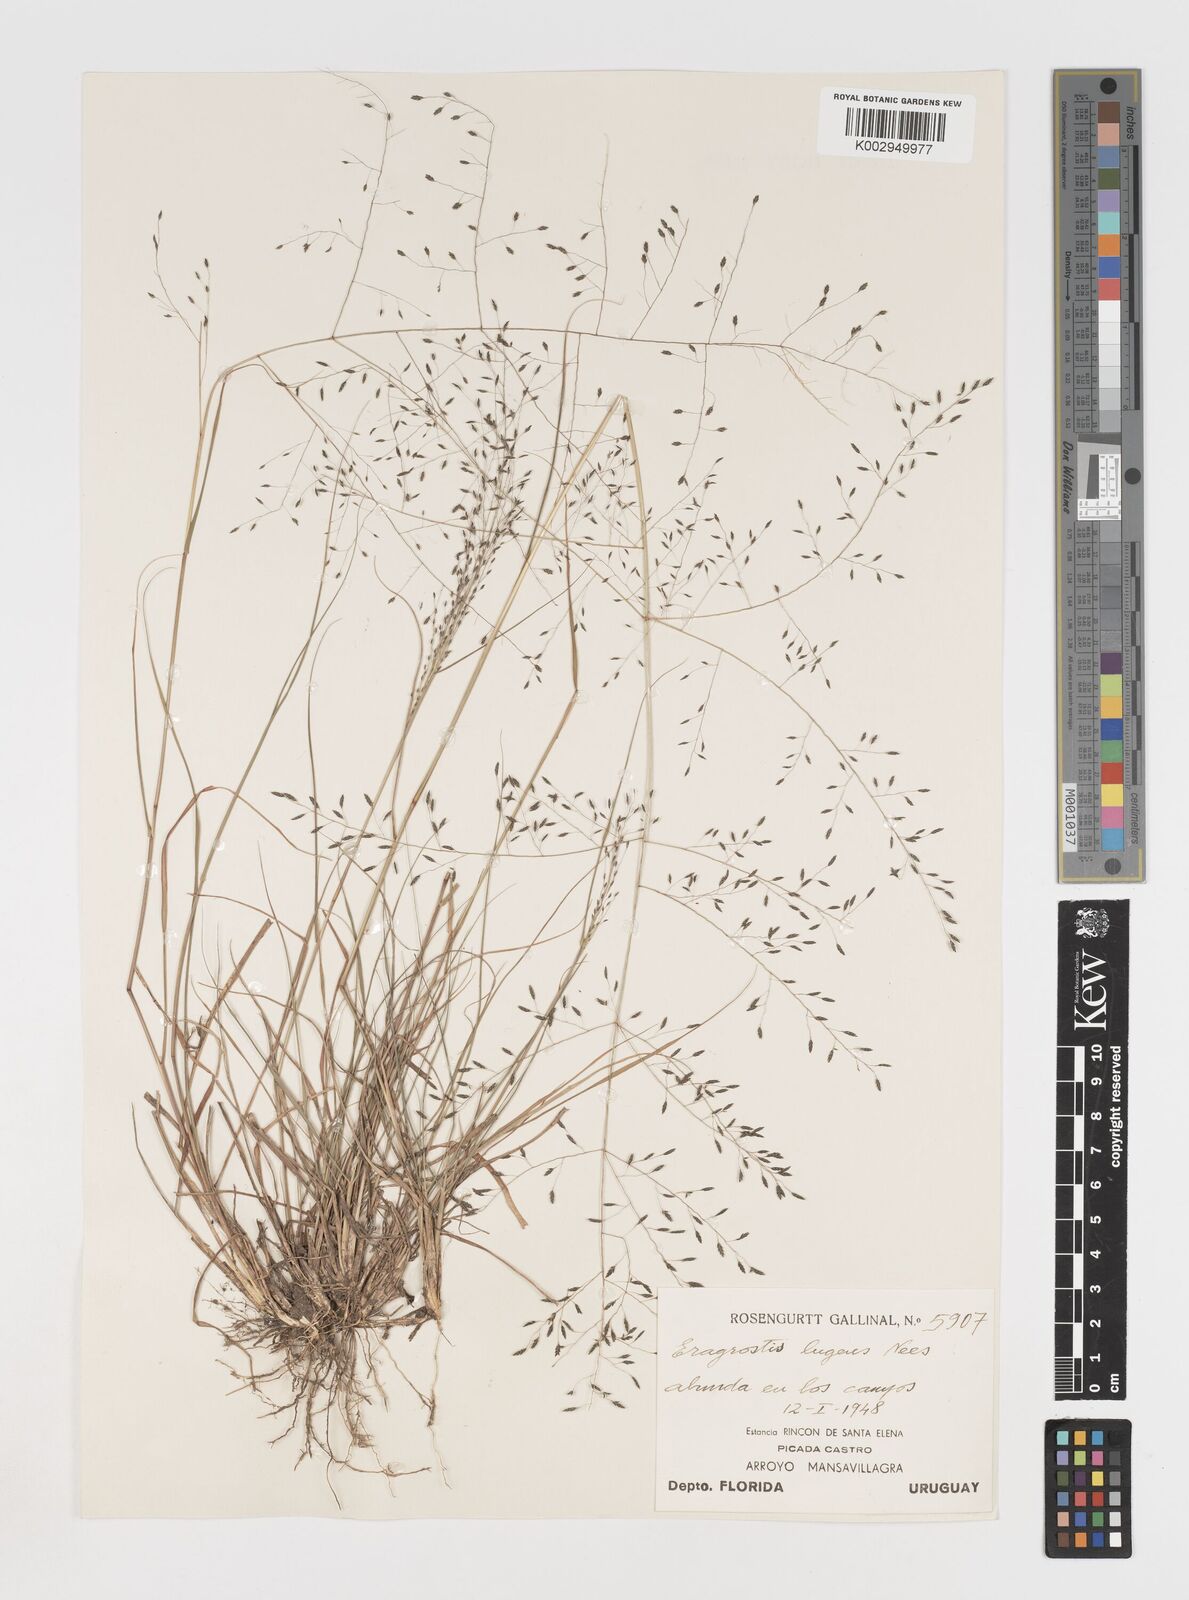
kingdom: Plantae
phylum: Tracheophyta
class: Liliopsida
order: Poales
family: Poaceae
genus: Eragrostis
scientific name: Eragrostis
